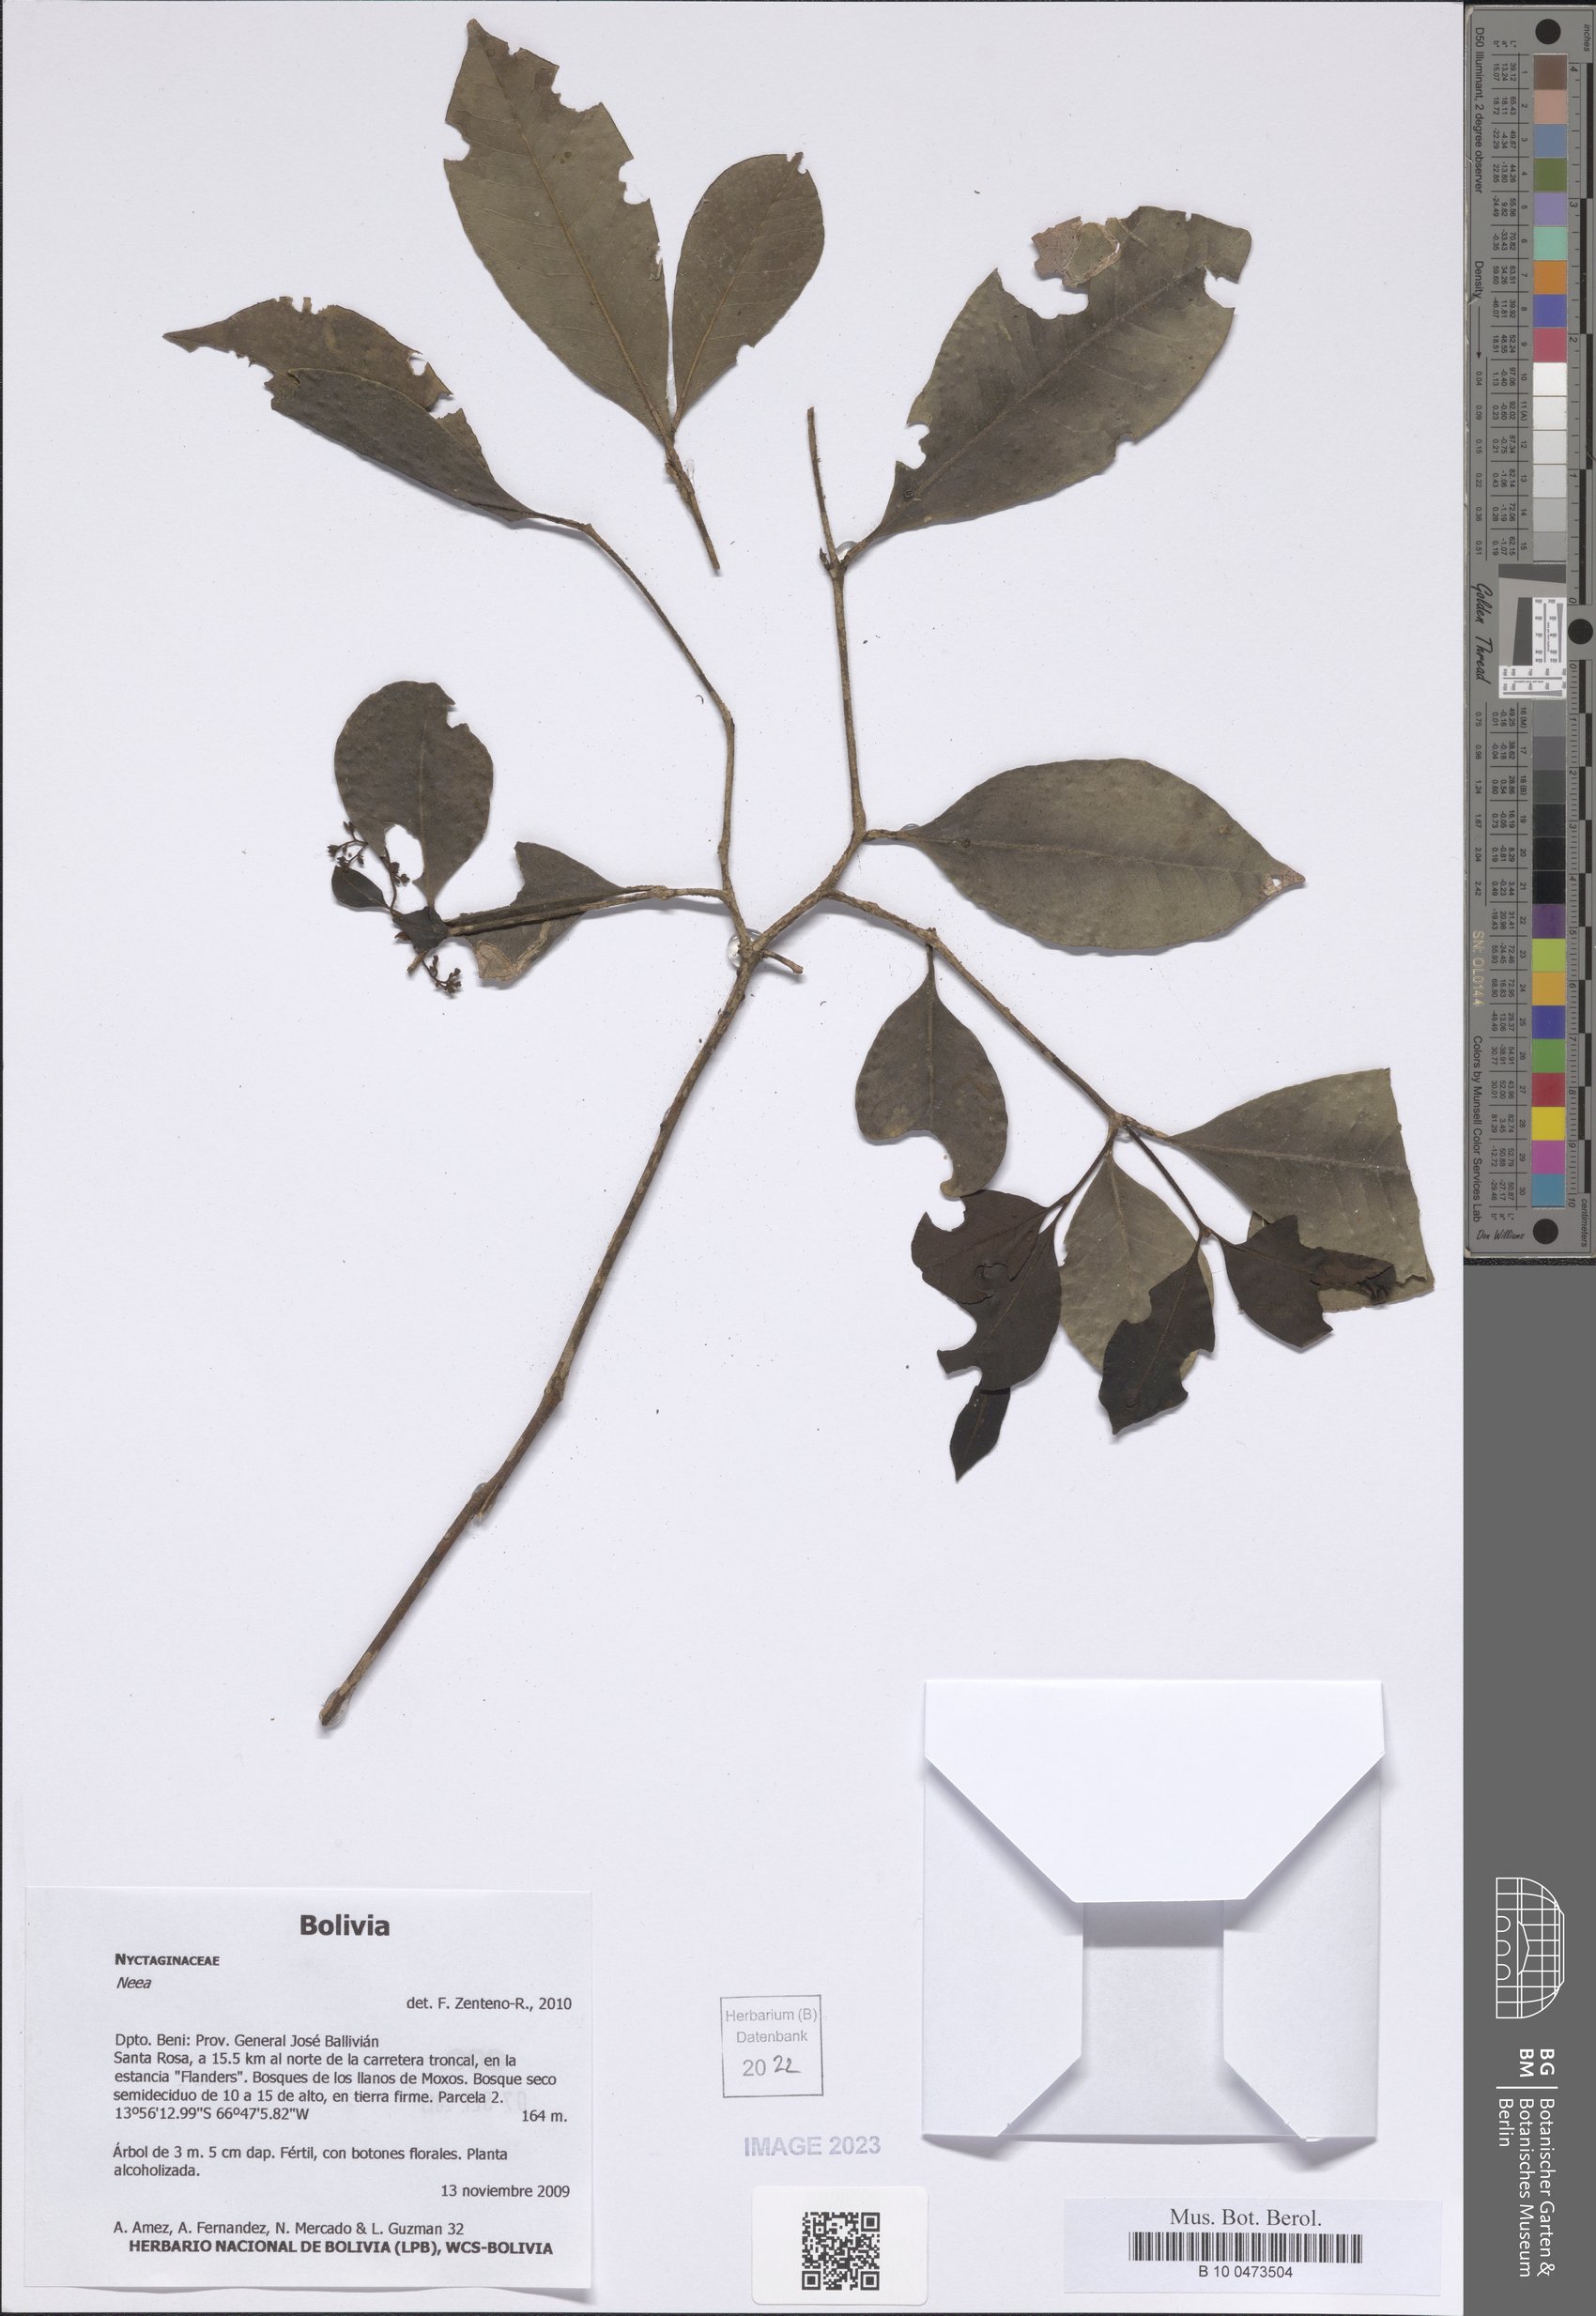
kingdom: Plantae
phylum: Tracheophyta
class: Magnoliopsida
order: Caryophyllales
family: Nyctaginaceae
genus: Neea
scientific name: Neea
